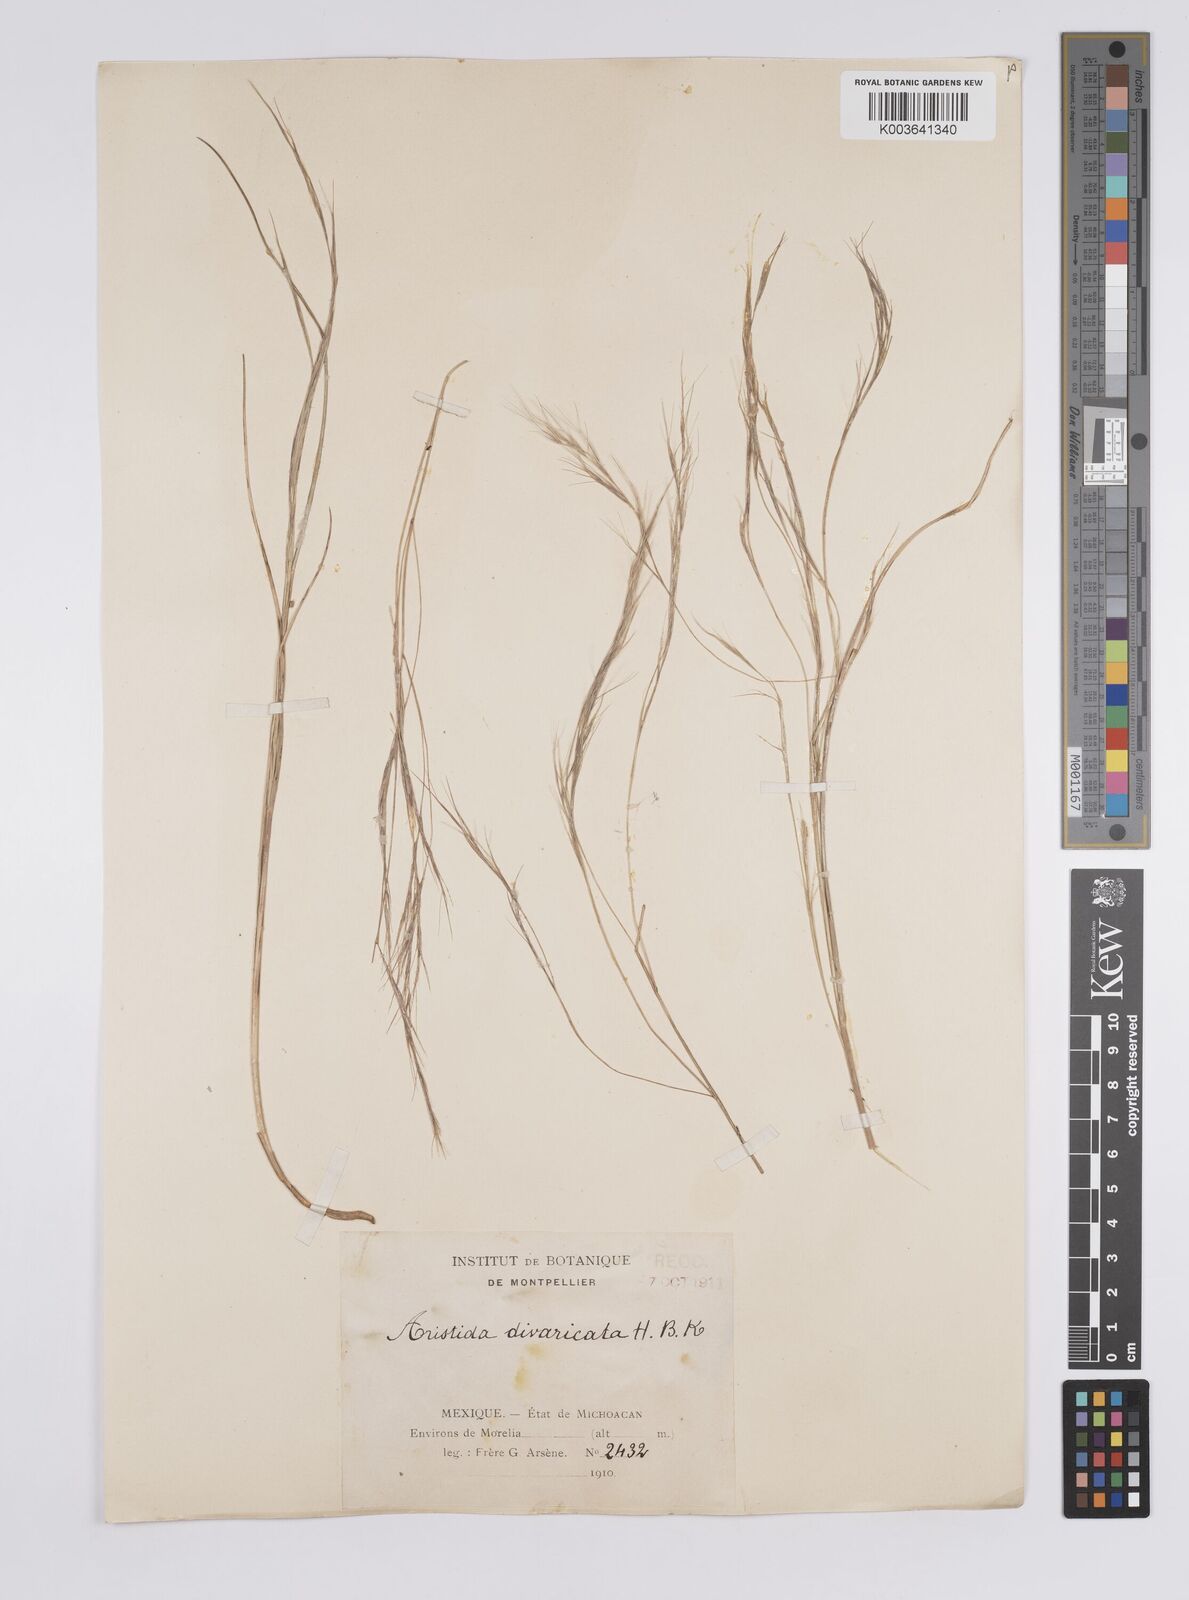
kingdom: Plantae
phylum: Tracheophyta
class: Liliopsida
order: Poales
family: Poaceae
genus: Aristida
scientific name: Aristida divaricata
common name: Poverty grass
